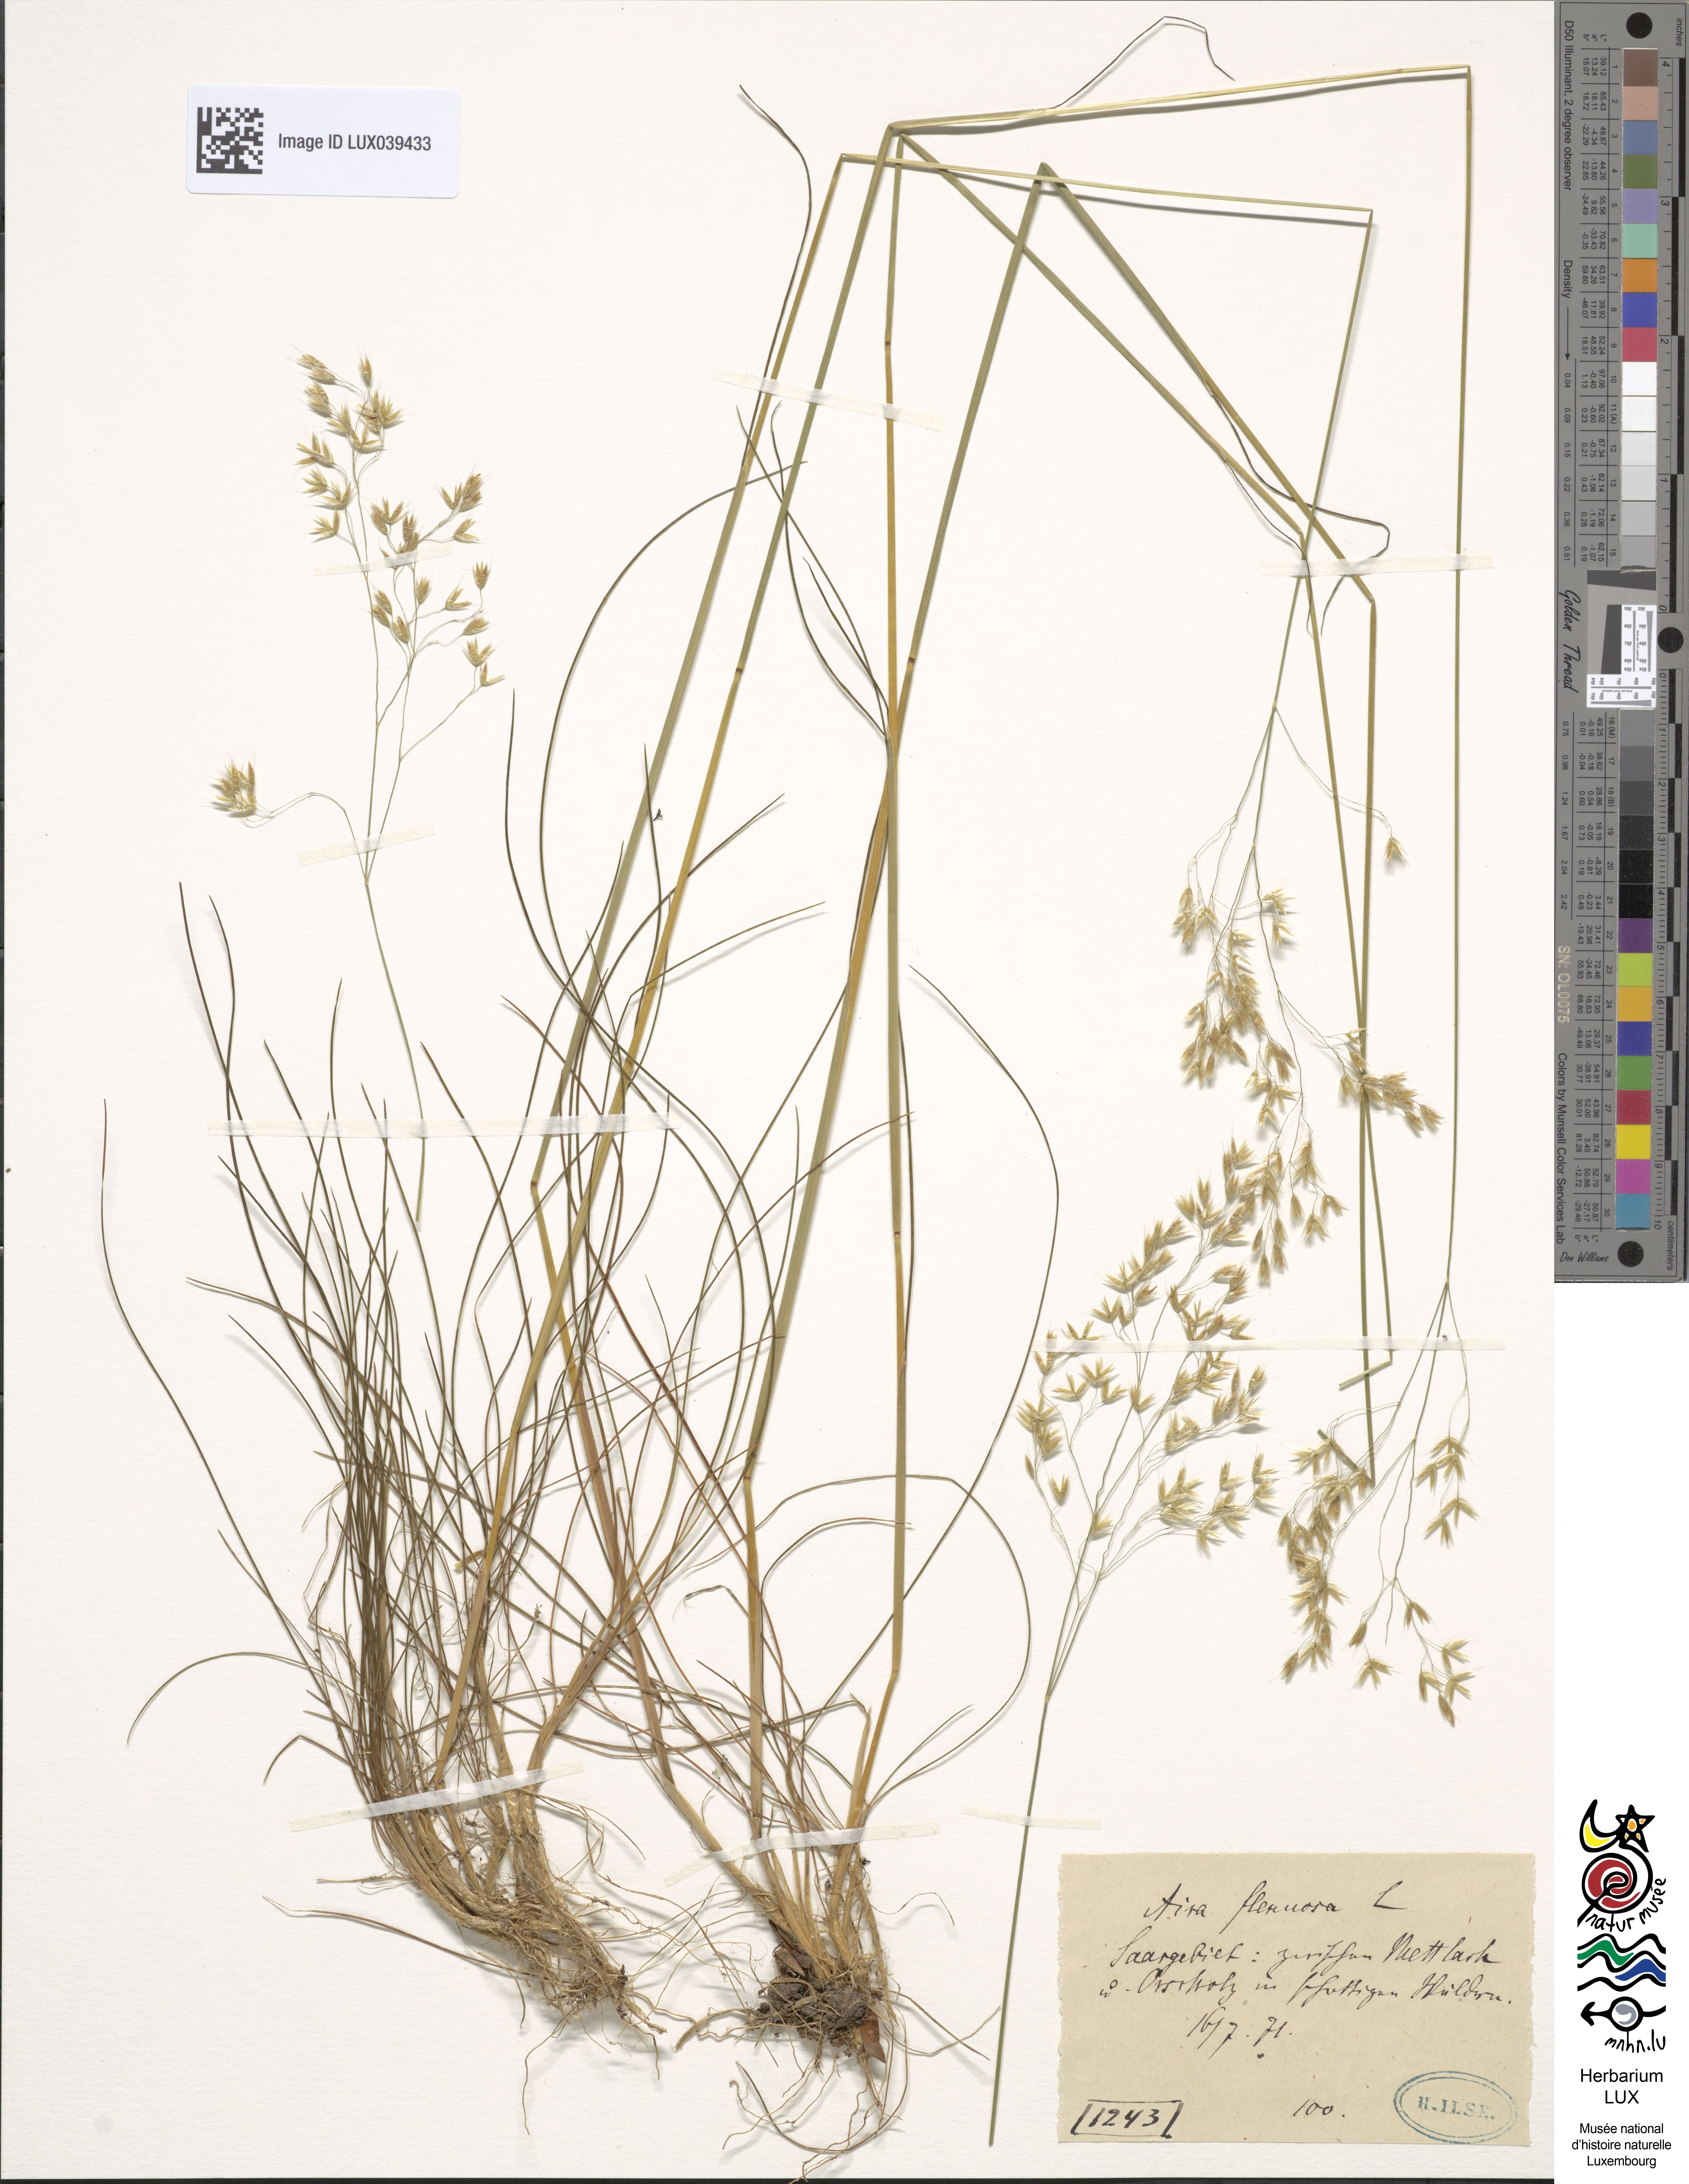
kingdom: Plantae
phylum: Tracheophyta
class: Liliopsida
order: Poales
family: Poaceae
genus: Avenella
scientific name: Avenella flexuosa
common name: Wavy hairgrass
